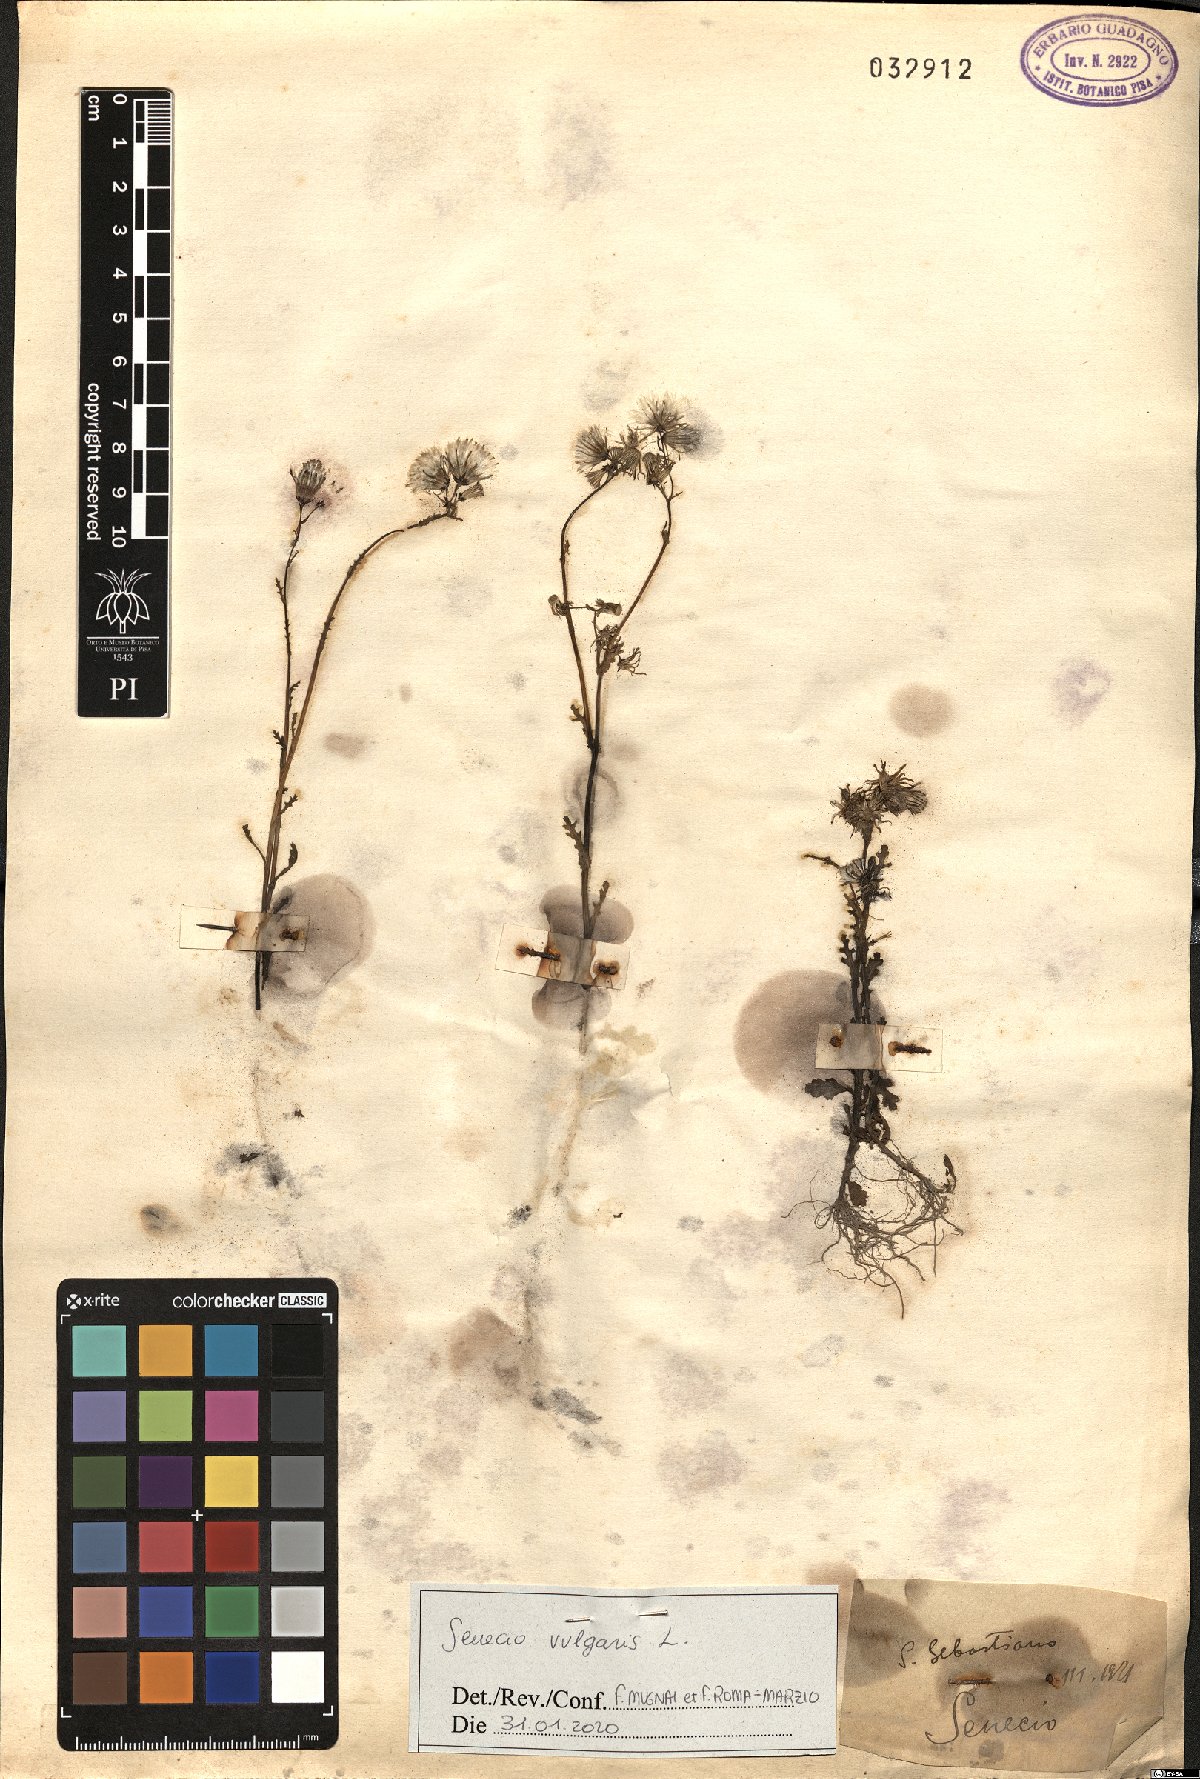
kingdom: Plantae
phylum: Tracheophyta
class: Magnoliopsida
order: Asterales
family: Asteraceae
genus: Senecio
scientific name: Senecio vulgaris
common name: Old-man-in-the-spring
